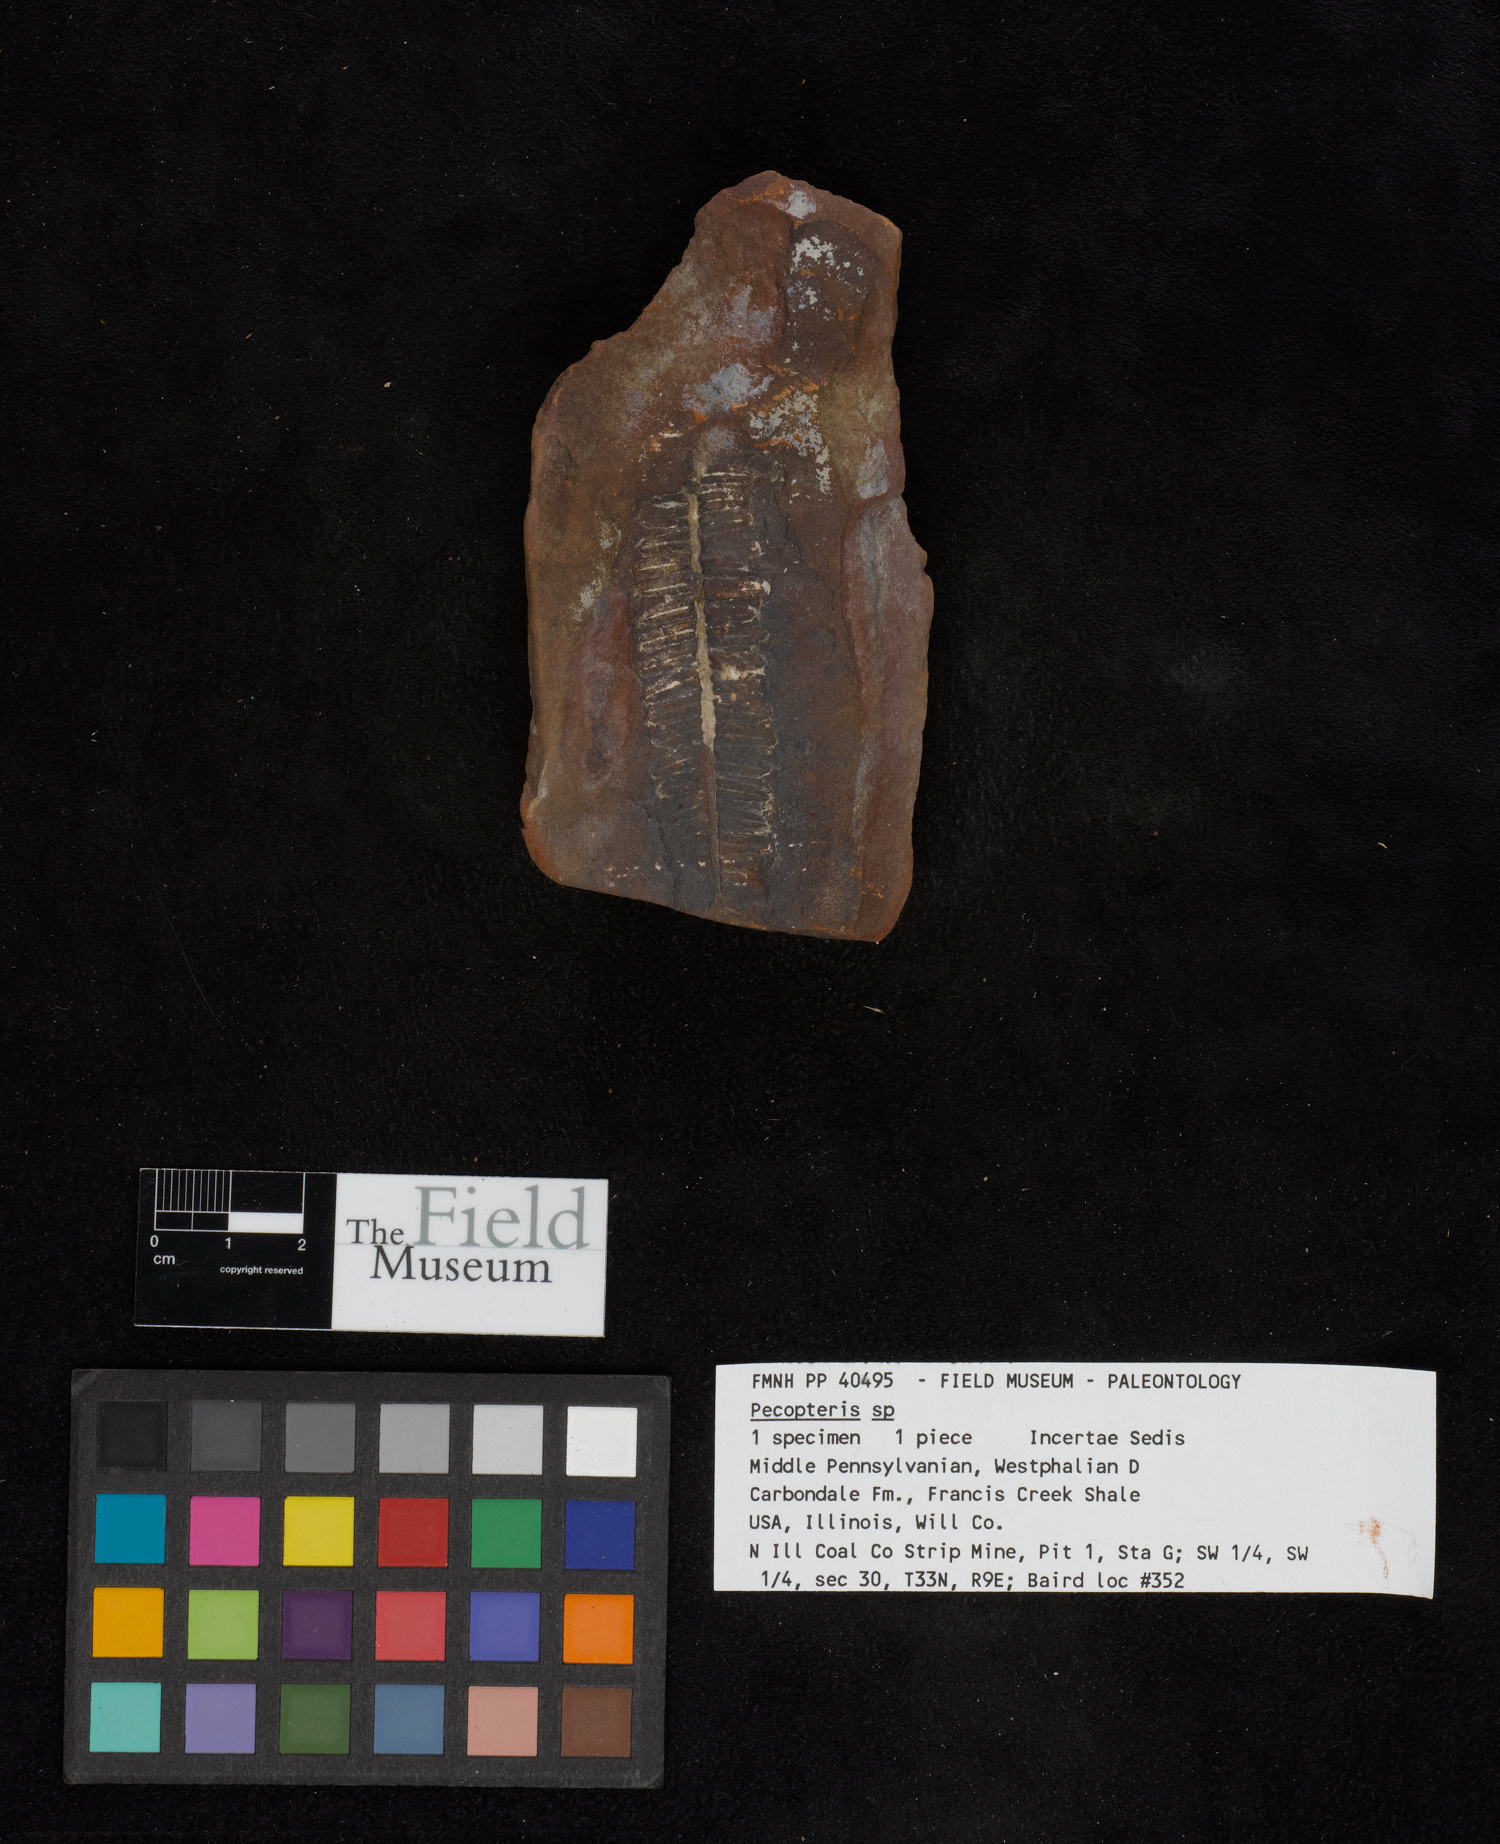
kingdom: Plantae
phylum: Tracheophyta
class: Polypodiopsida
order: Marattiales
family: Asterothecaceae
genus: Pecopteris
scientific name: Pecopteris
